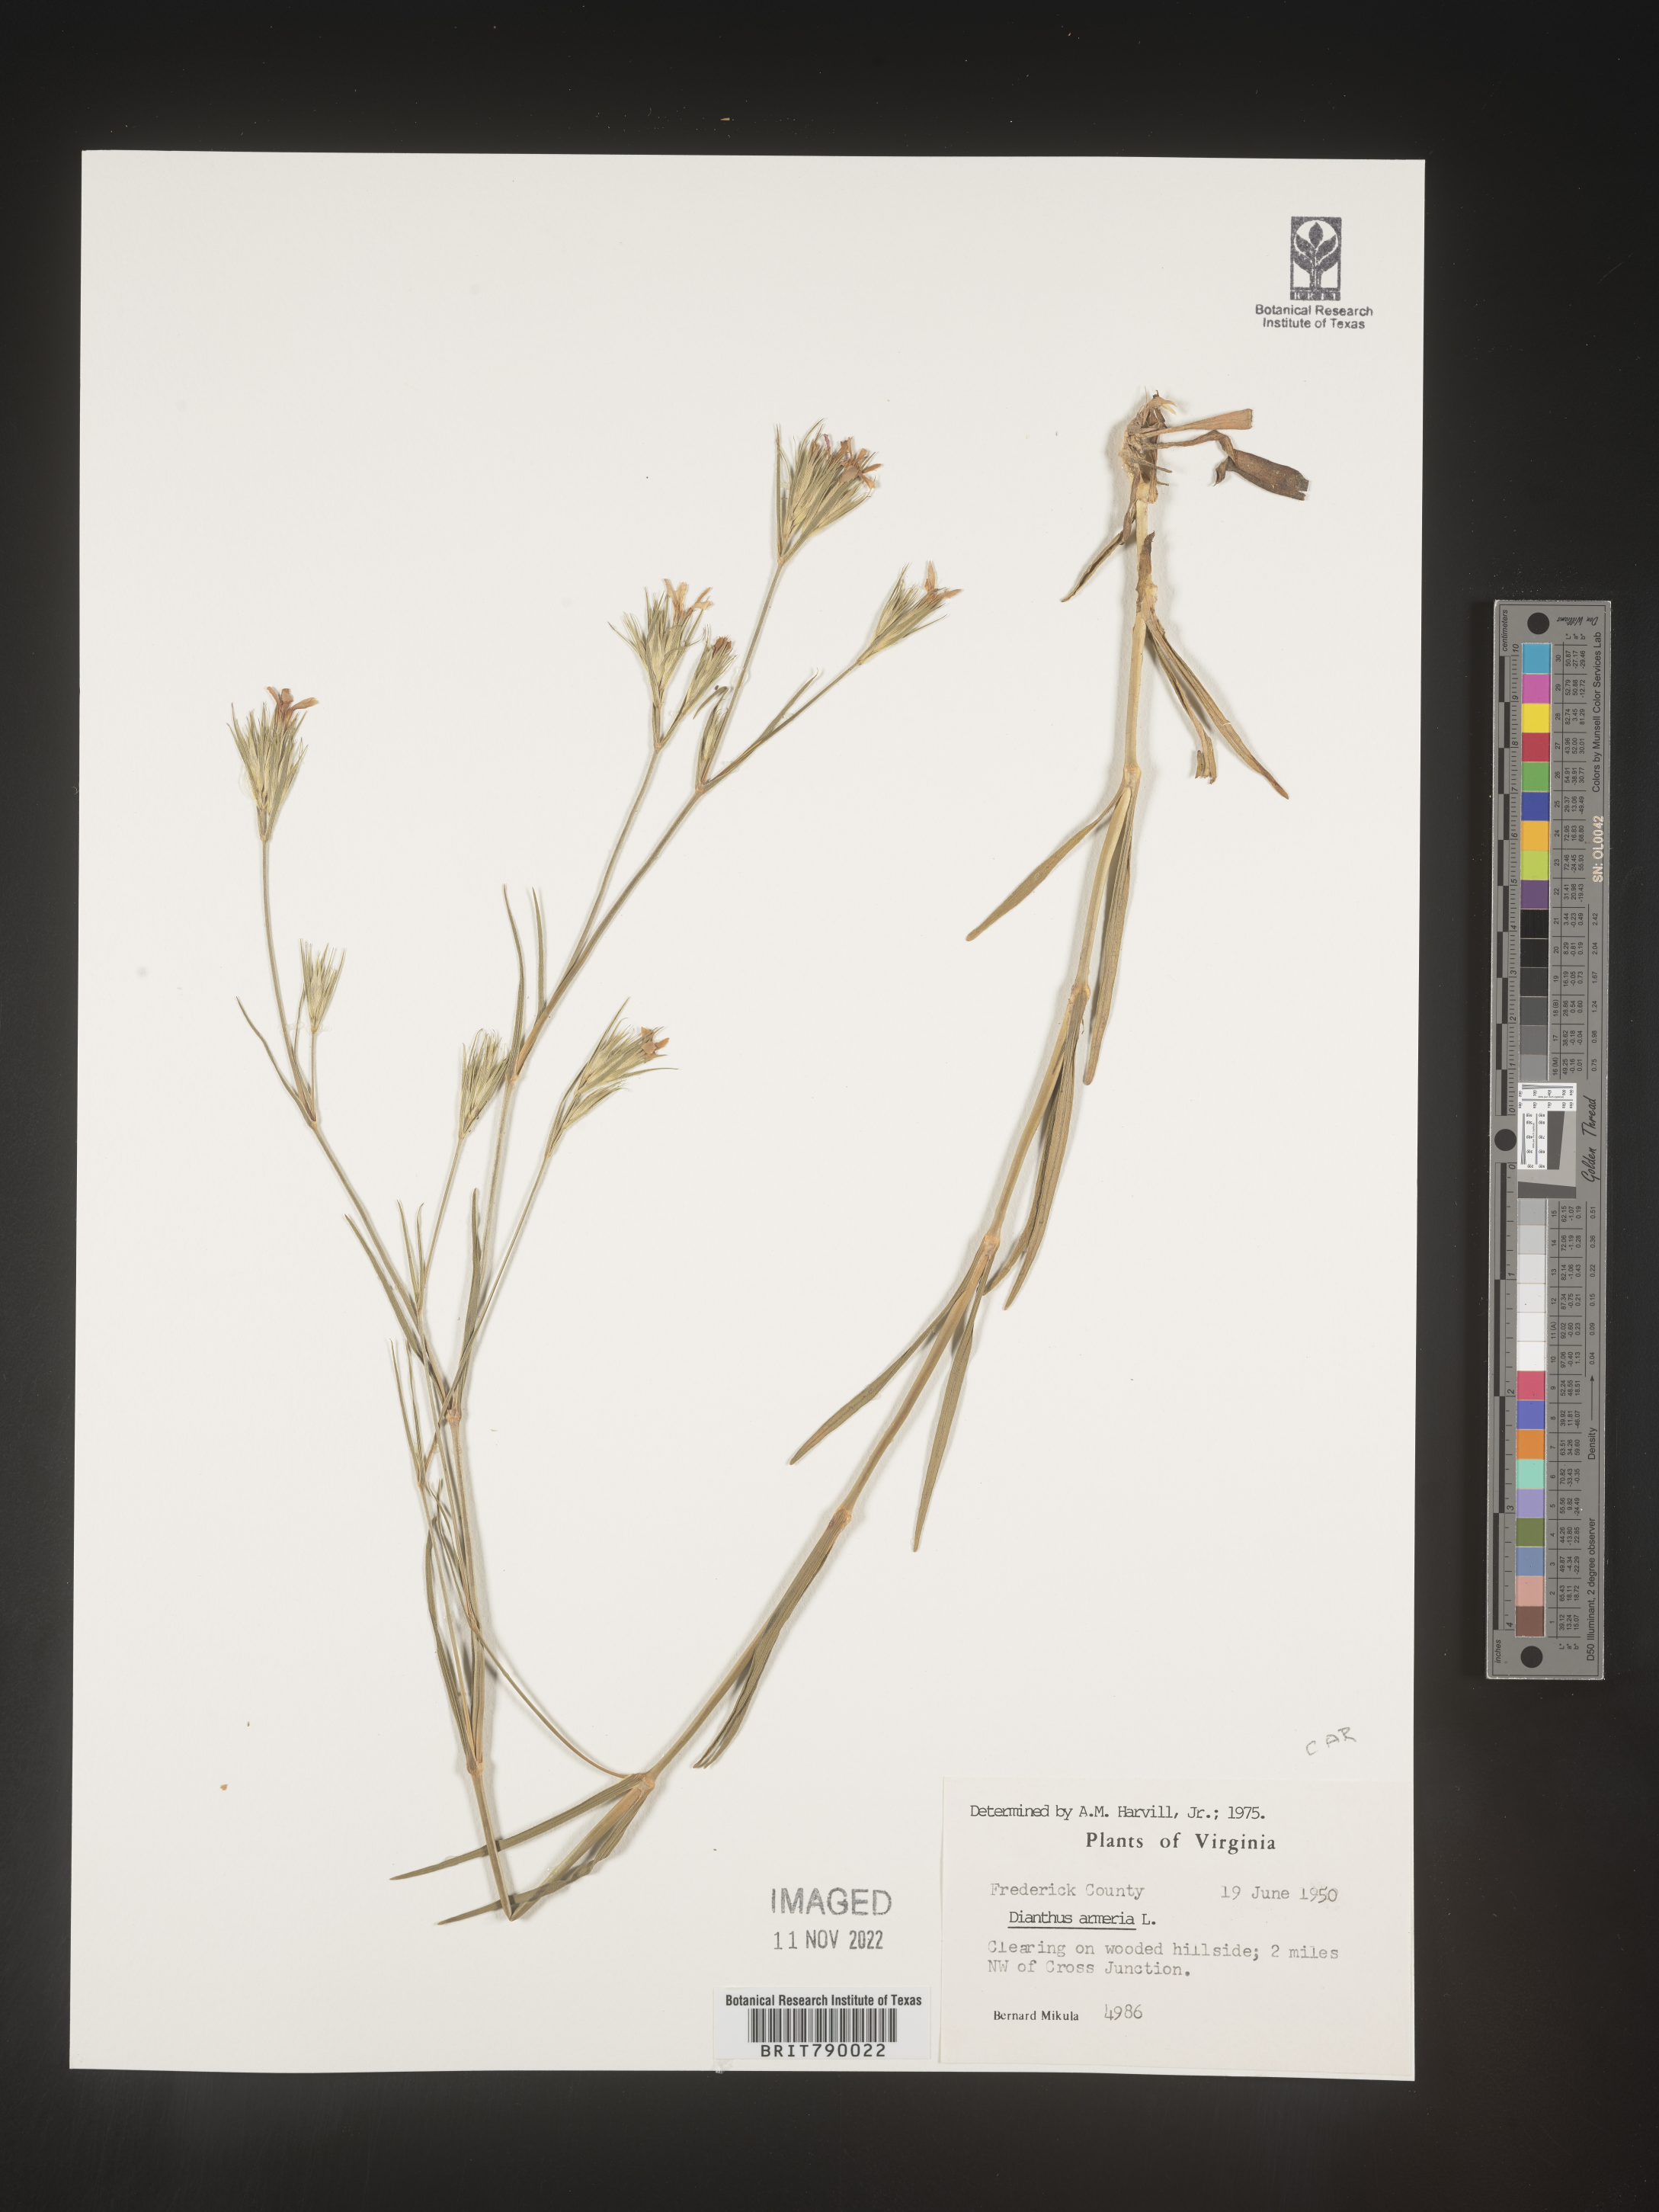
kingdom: Plantae
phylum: Tracheophyta
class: Magnoliopsida
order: Caryophyllales
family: Caryophyllaceae
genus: Dianthus
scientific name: Dianthus armeria
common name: Deptford pink
